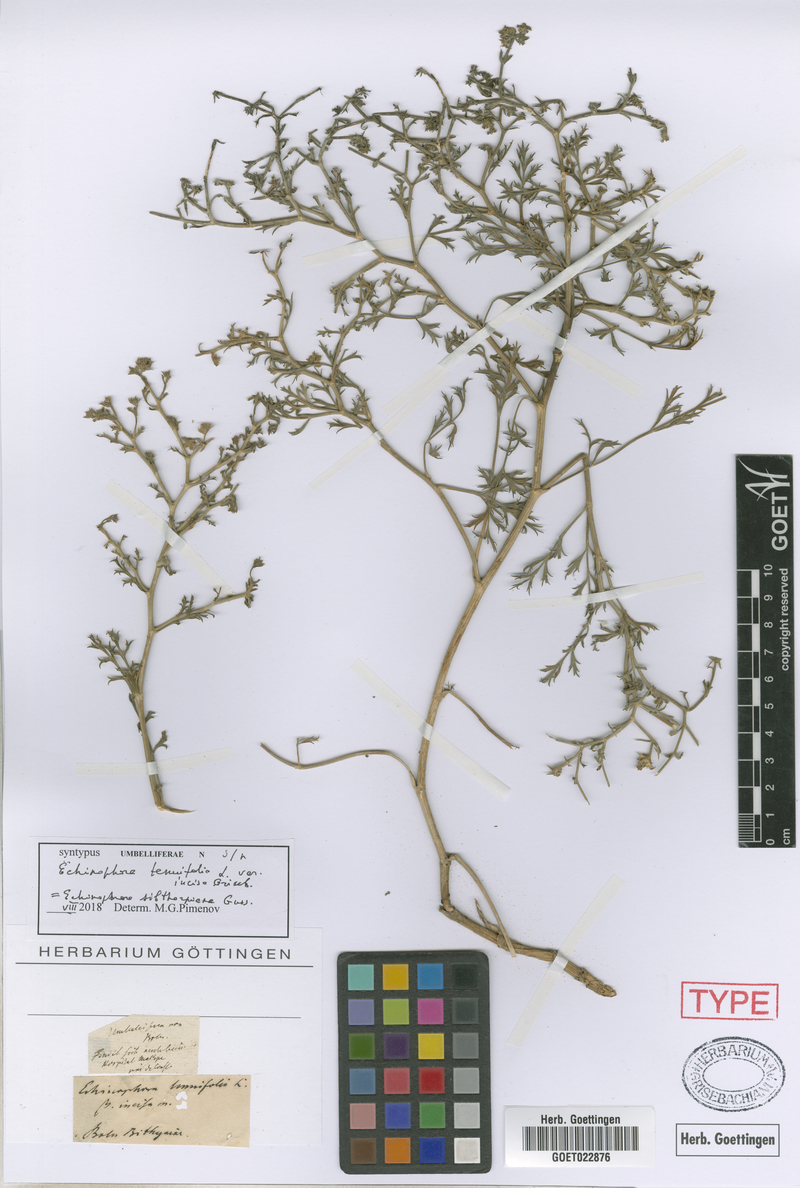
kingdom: Plantae
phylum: Tracheophyta
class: Magnoliopsida
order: Apiales
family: Apiaceae
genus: Echinophora
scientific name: Echinophora sibthorpiana
